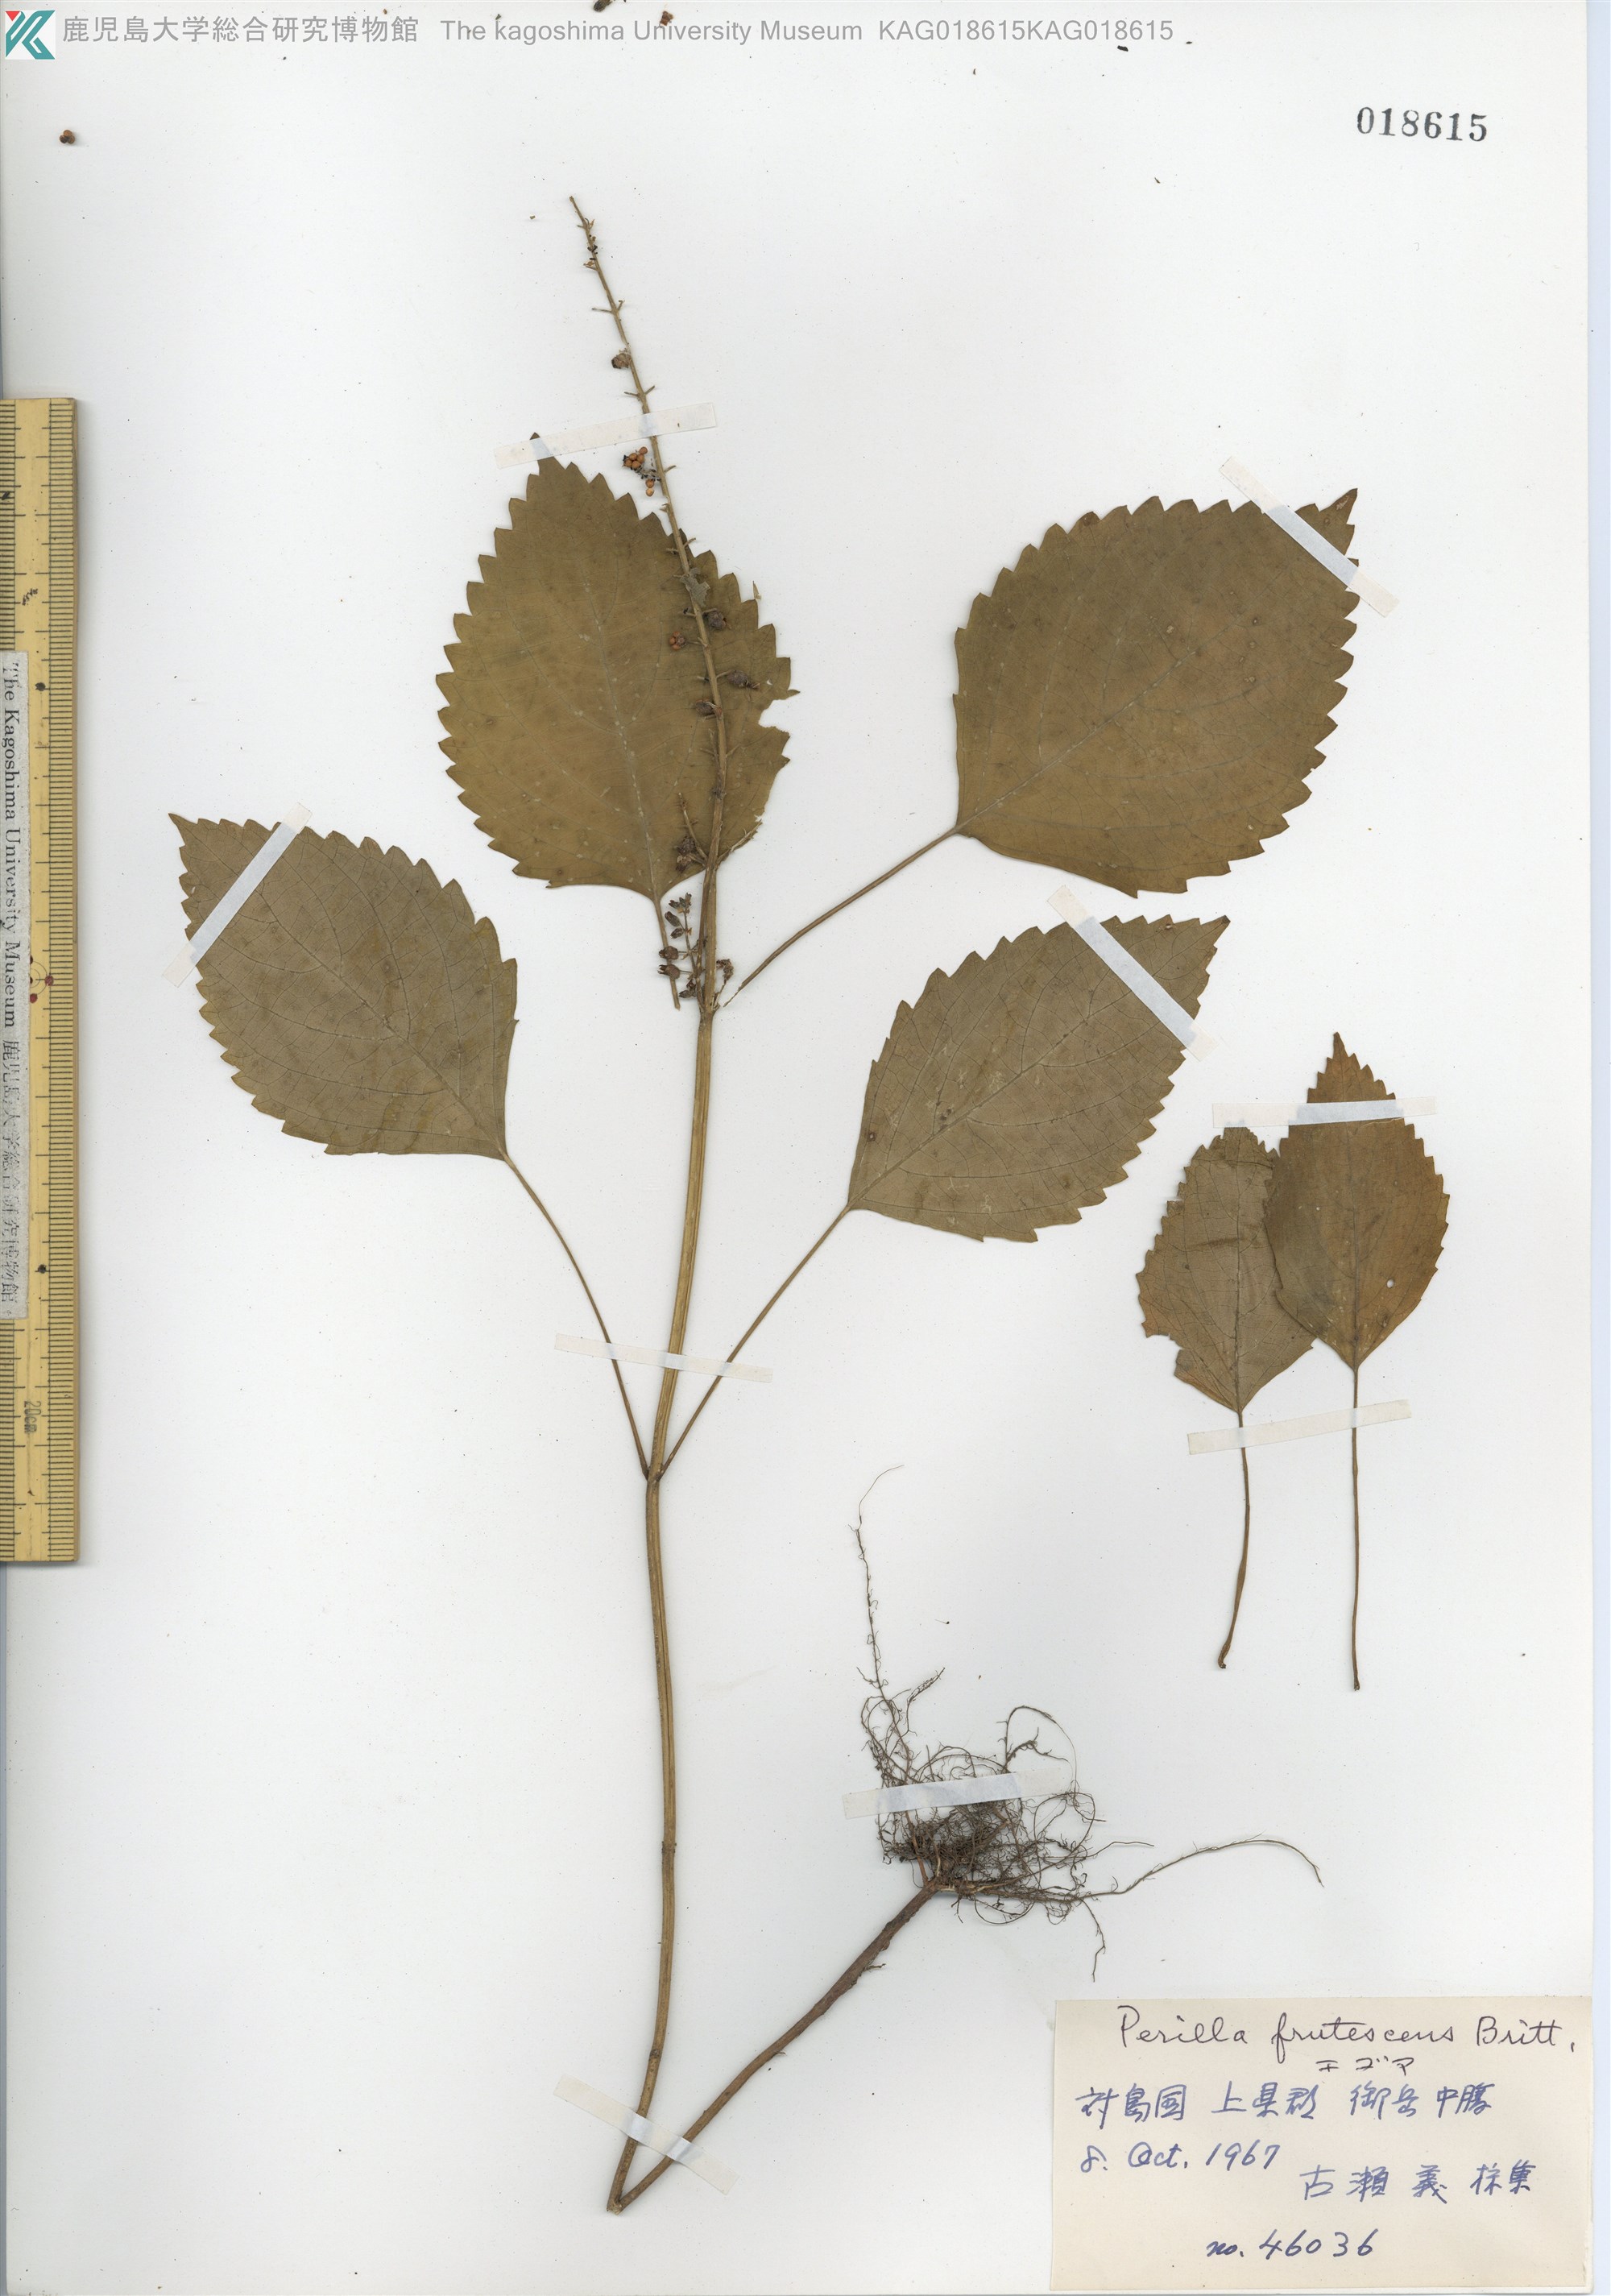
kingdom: Plantae
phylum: Tracheophyta
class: Magnoliopsida
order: Lamiales
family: Lamiaceae
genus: Perilla
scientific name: Perilla frutescens
